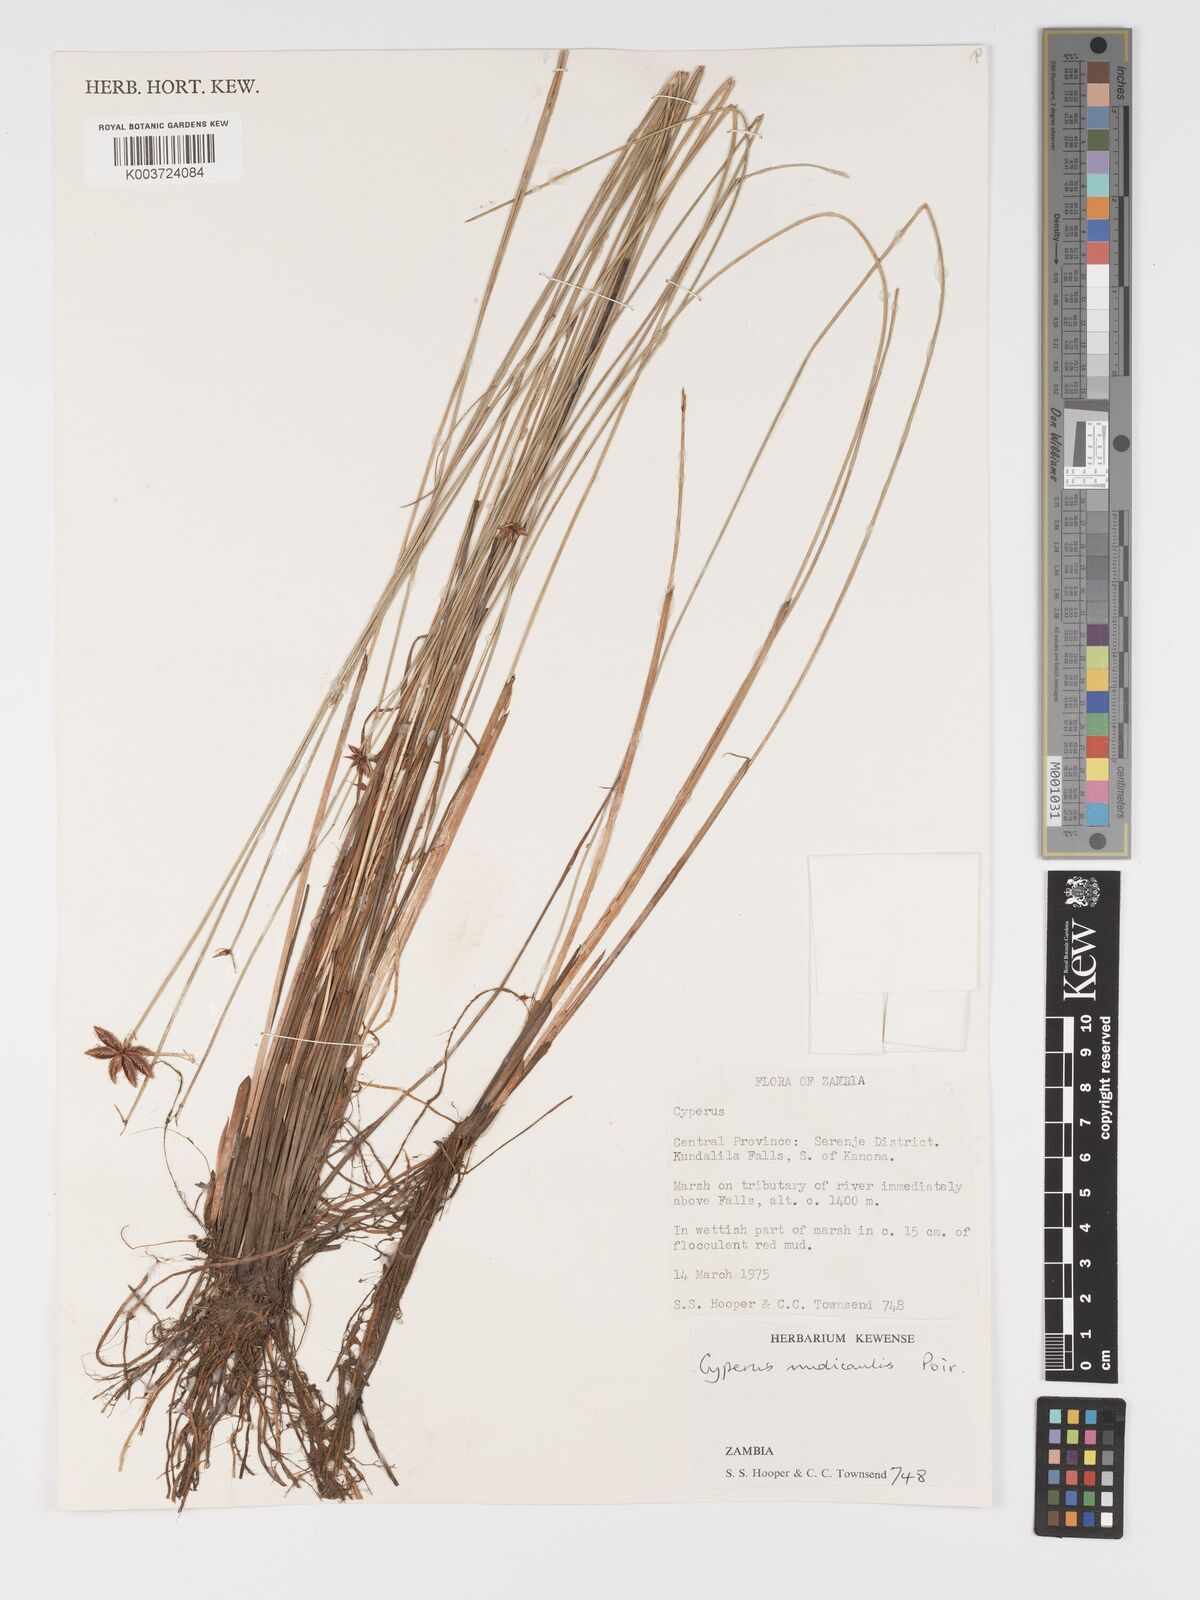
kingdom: Plantae
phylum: Tracheophyta
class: Liliopsida
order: Poales
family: Cyperaceae
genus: Cyperus
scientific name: Cyperus compressus
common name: Poorland flatsedge
